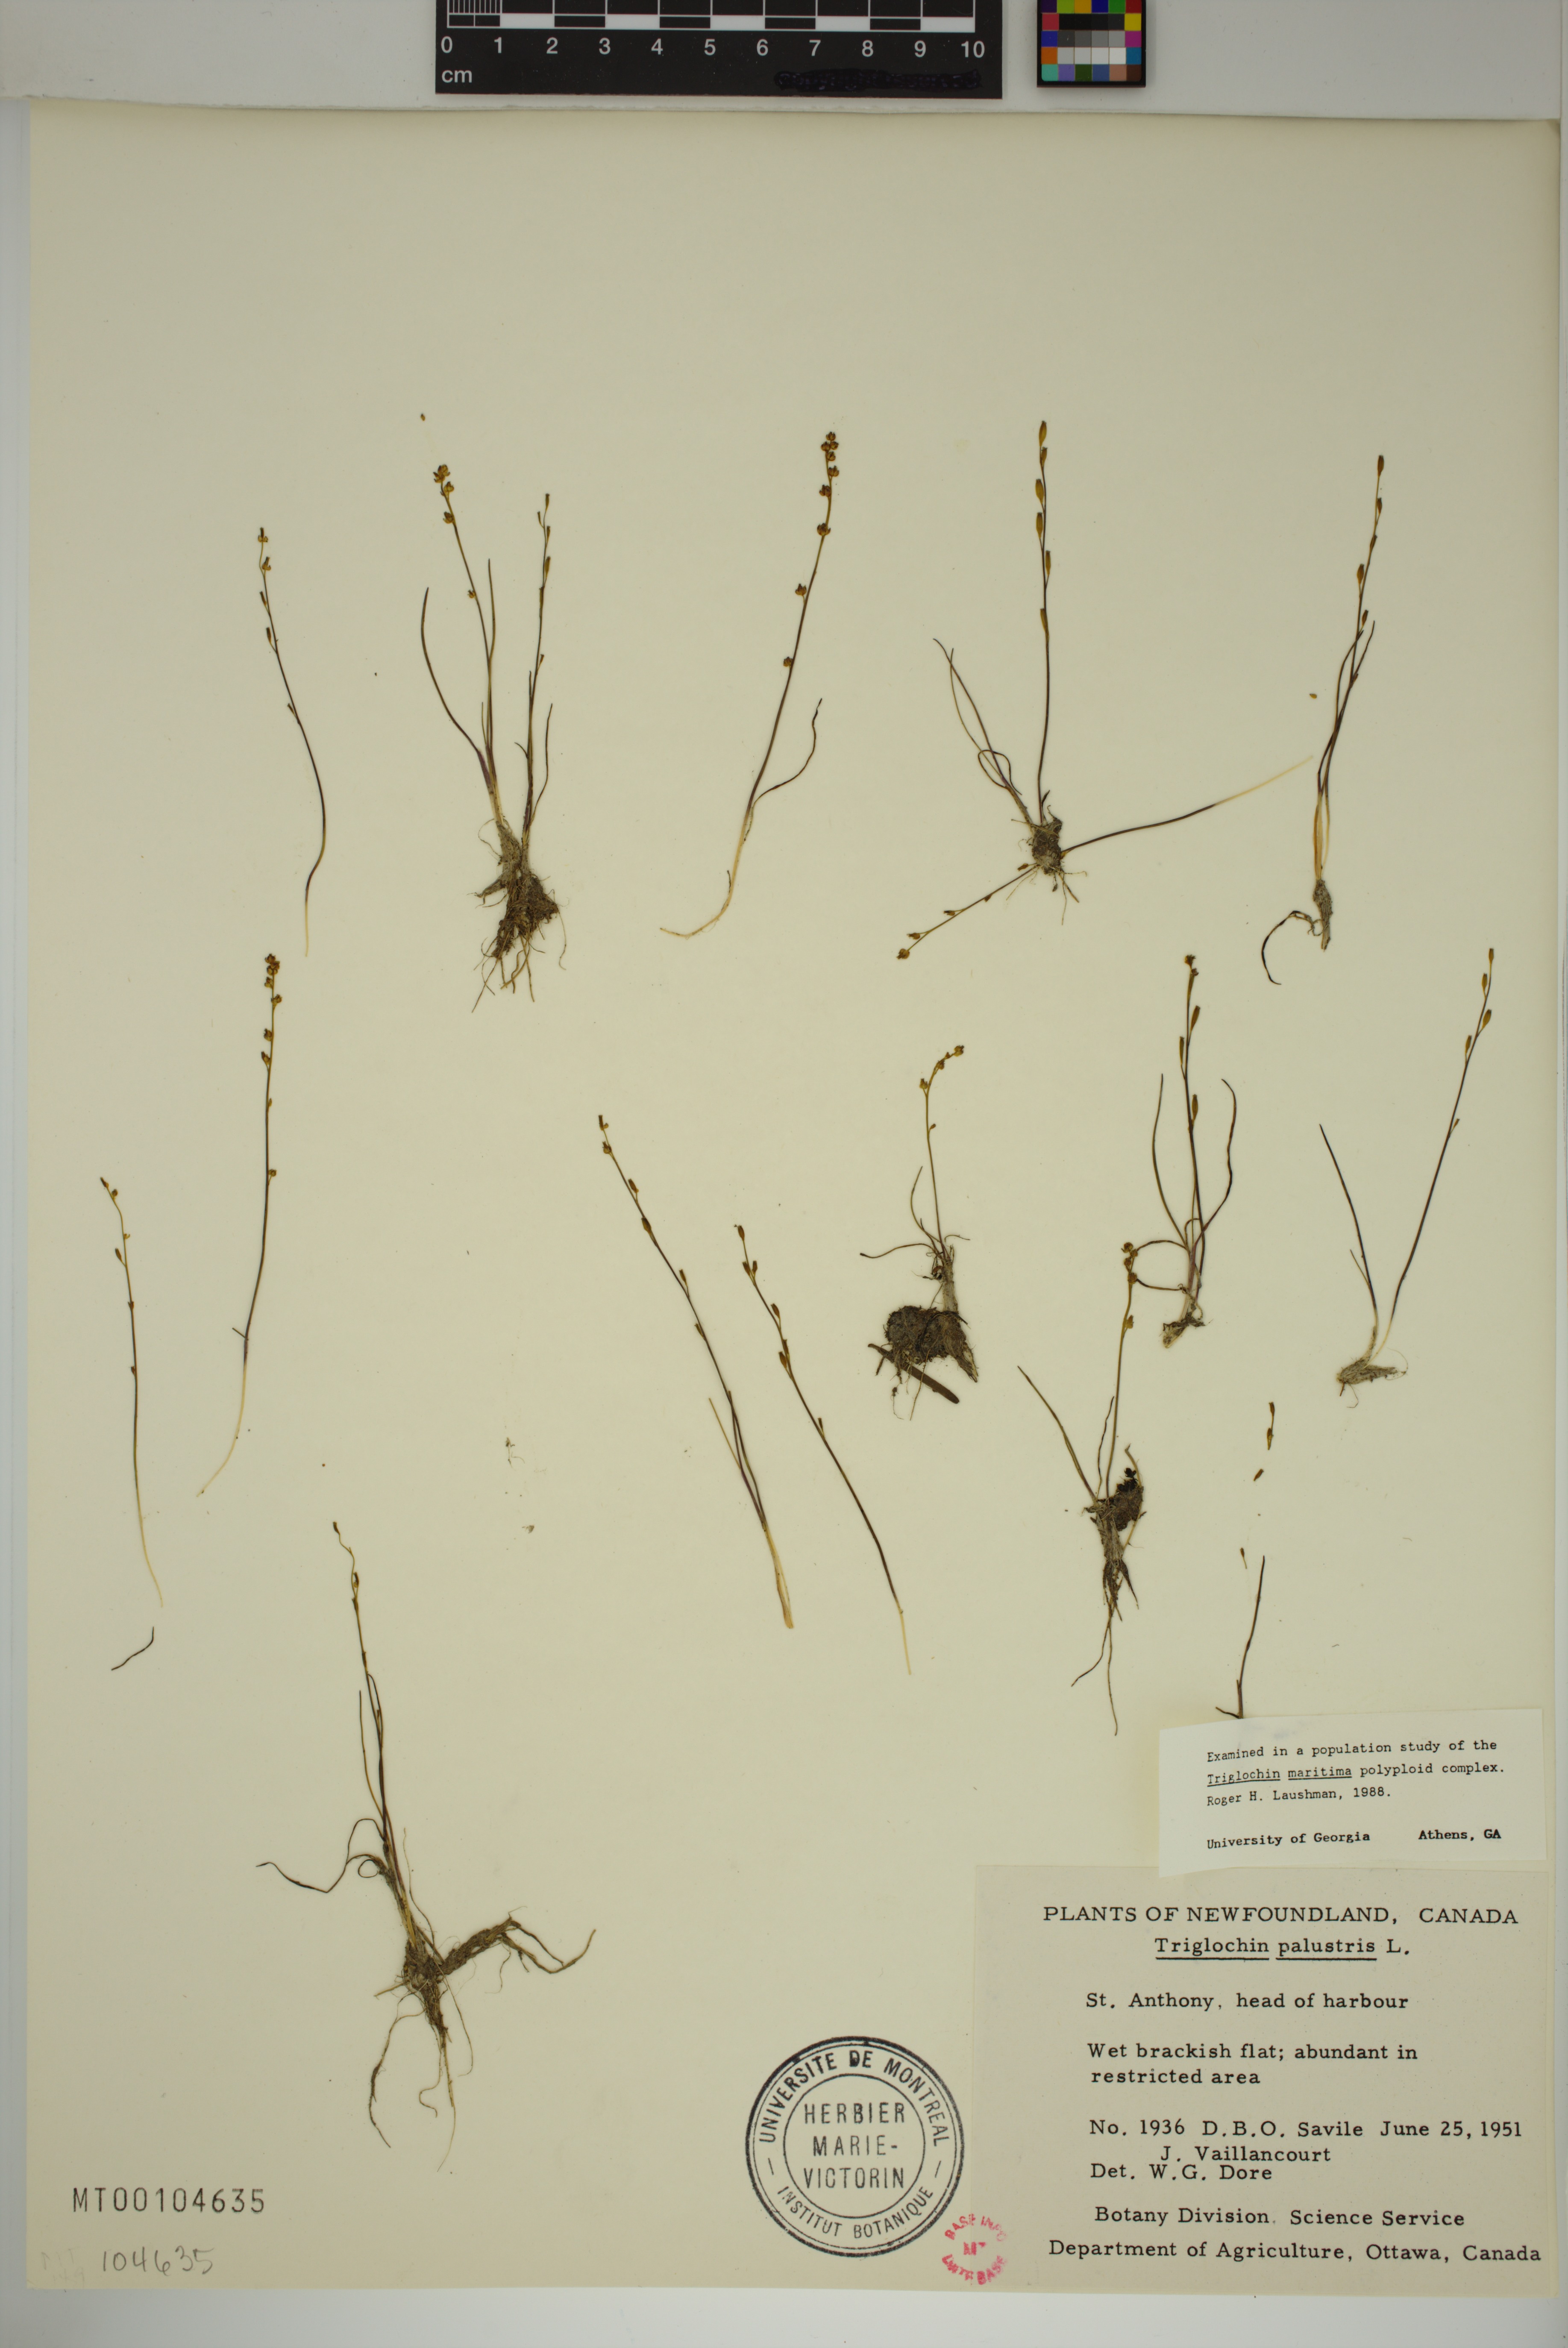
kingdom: Plantae
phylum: Tracheophyta
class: Liliopsida
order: Alismatales
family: Juncaginaceae
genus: Triglochin
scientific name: Triglochin palustris
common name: Marsh arrowgrass
